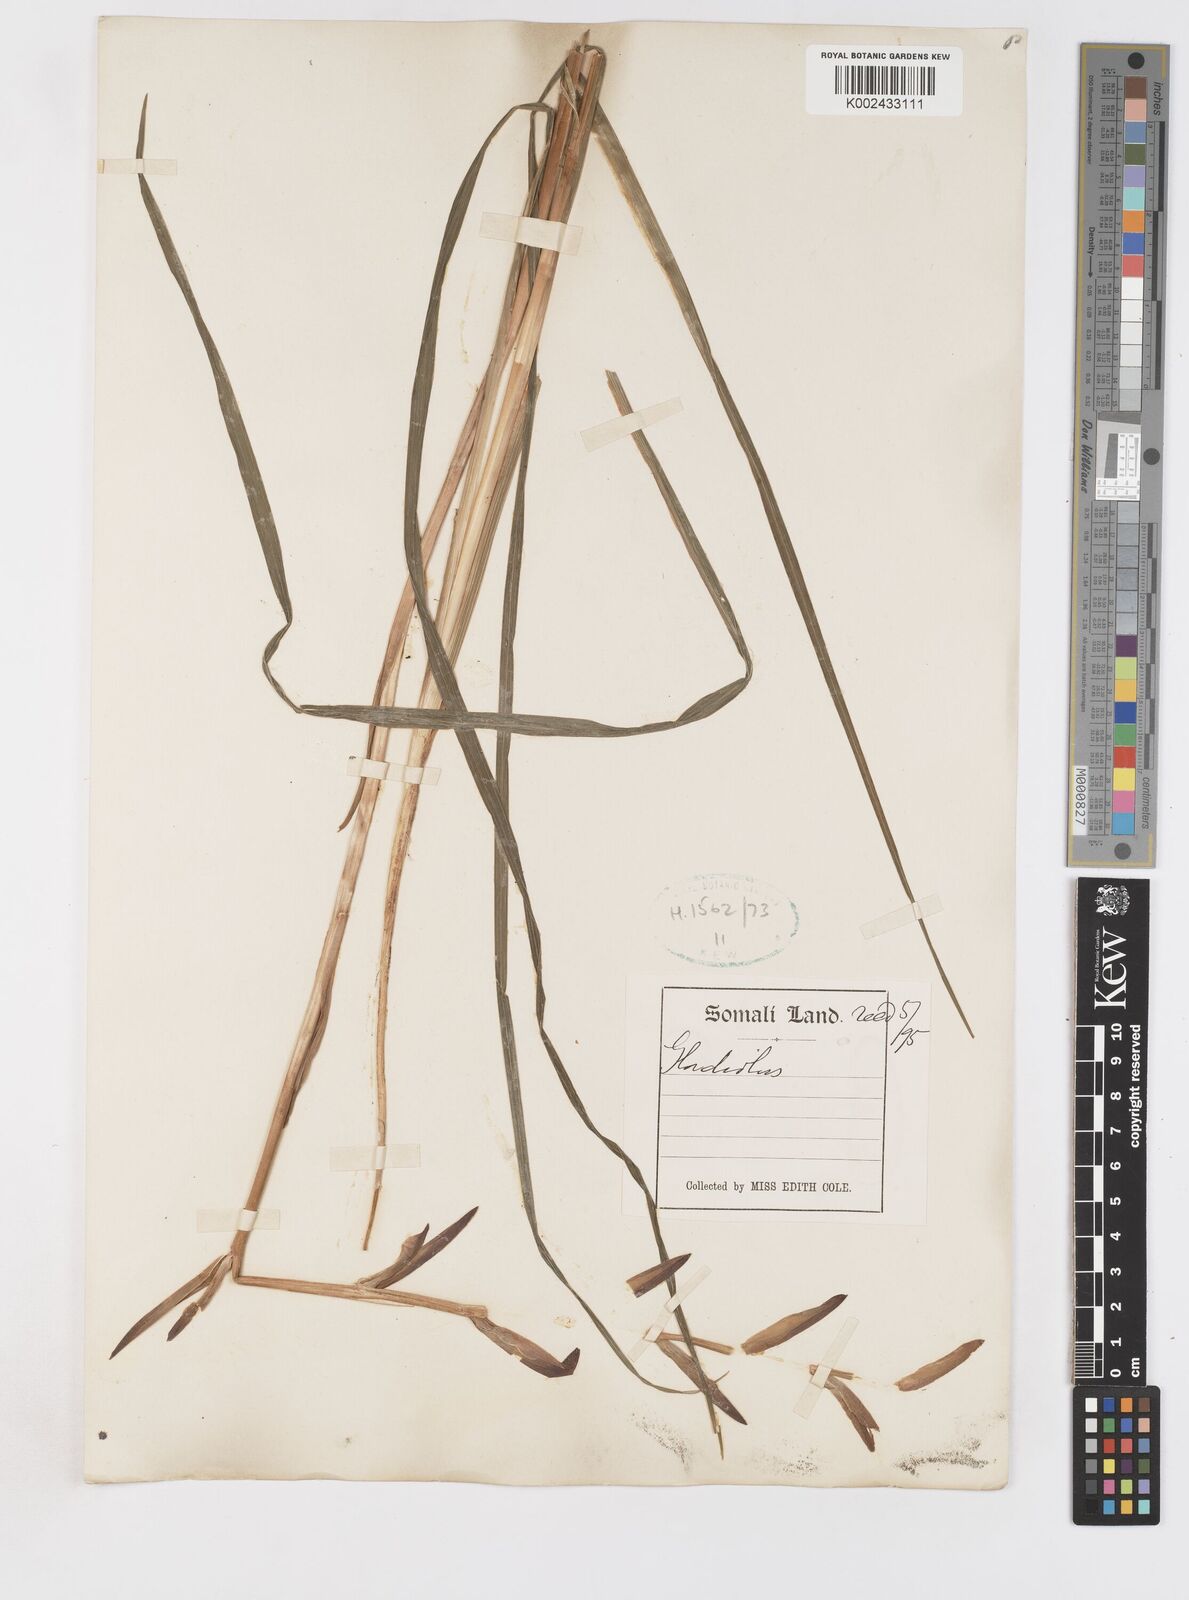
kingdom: Plantae
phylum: Tracheophyta
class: Liliopsida
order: Asparagales
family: Iridaceae
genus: Gladiolus
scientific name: Gladiolus
